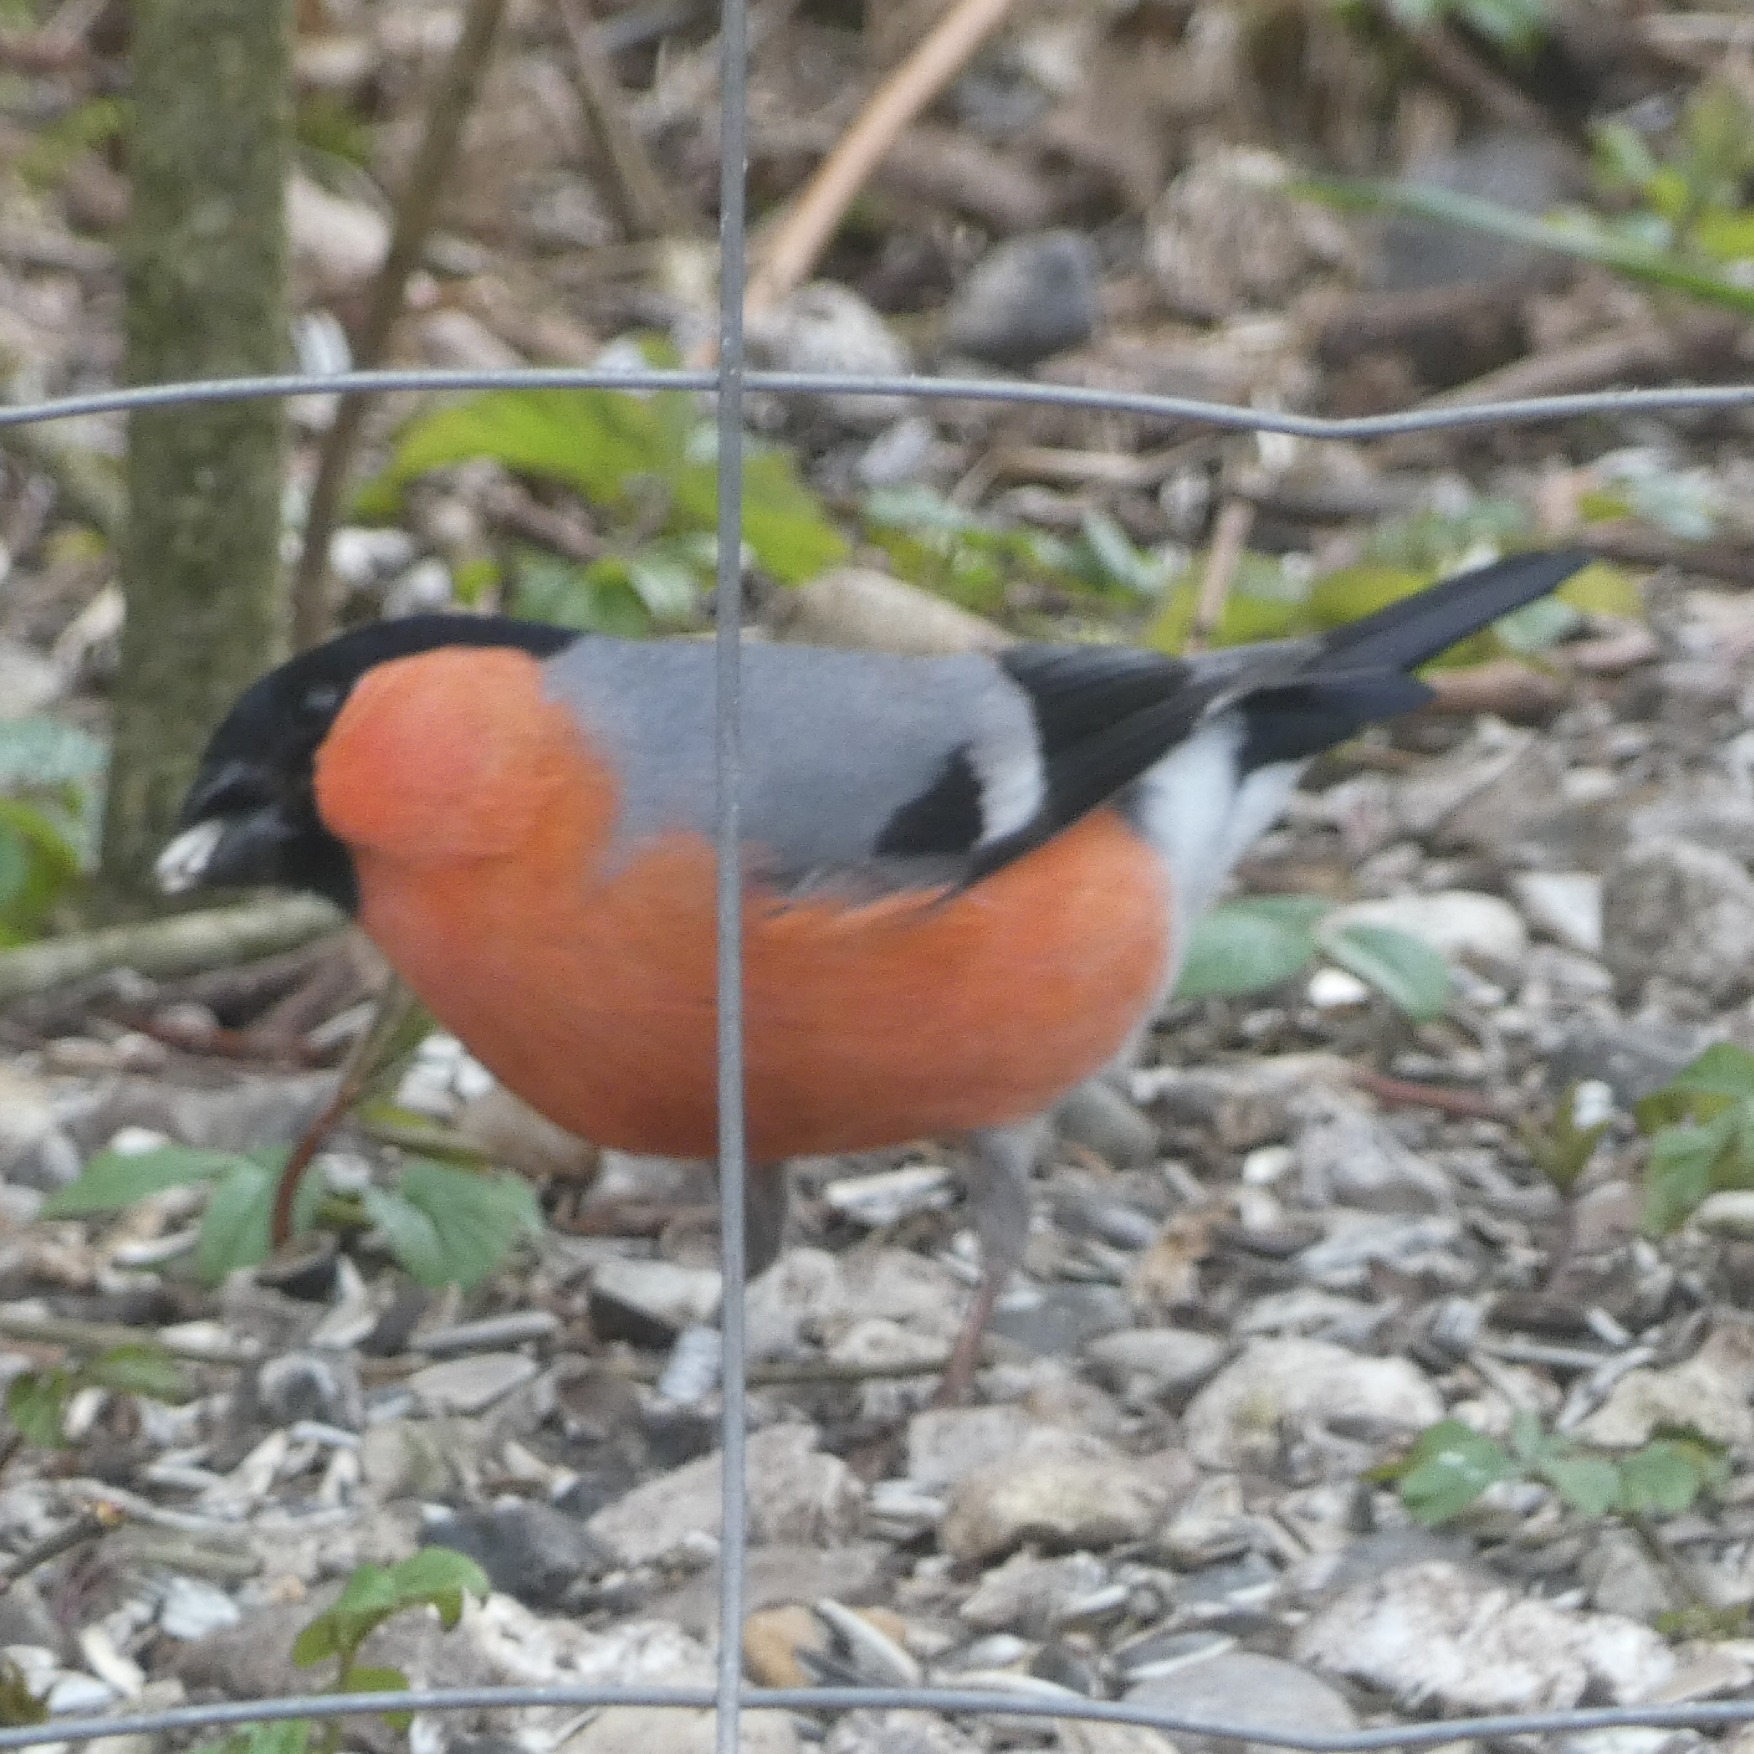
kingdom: Animalia
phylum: Chordata
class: Aves
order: Passeriformes
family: Fringillidae
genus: Pyrrhula
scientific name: Pyrrhula pyrrhula
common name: Dompap
